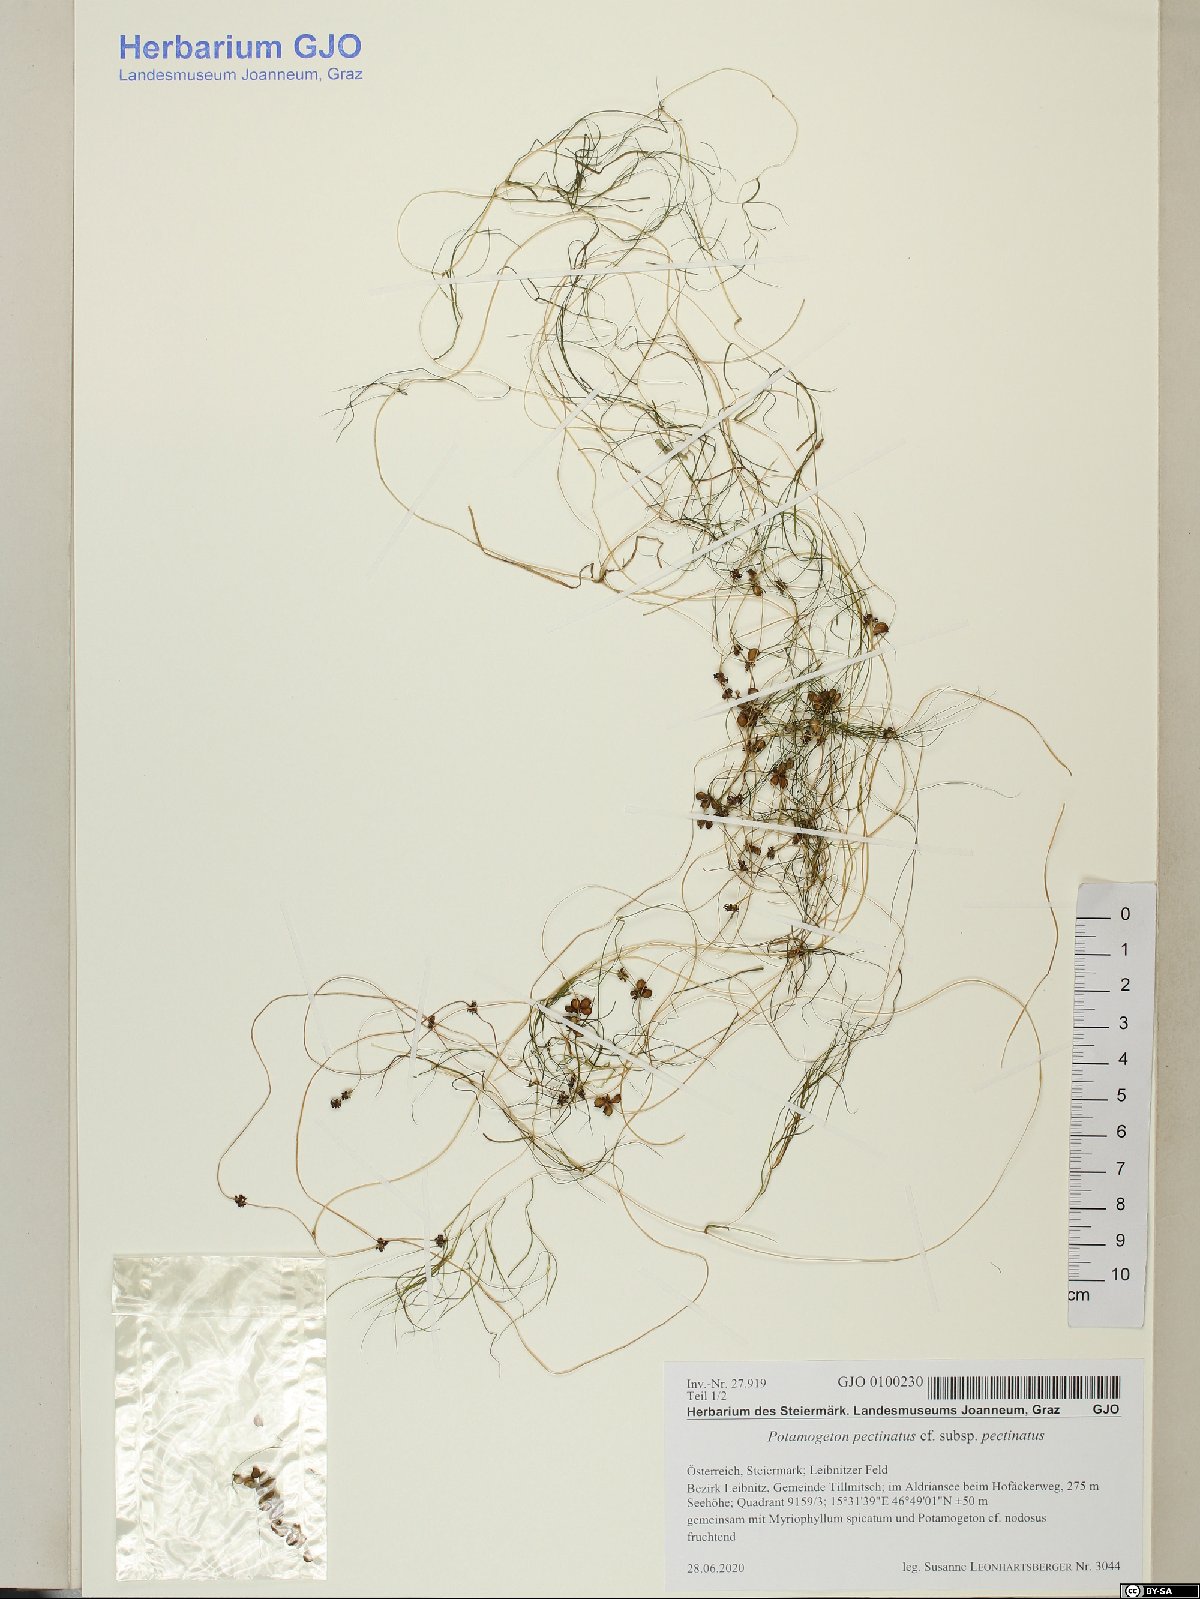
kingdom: Plantae
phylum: Tracheophyta
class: Liliopsida
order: Alismatales
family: Potamogetonaceae
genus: Stuckenia
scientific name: Stuckenia pectinata
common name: Sago pondweed
